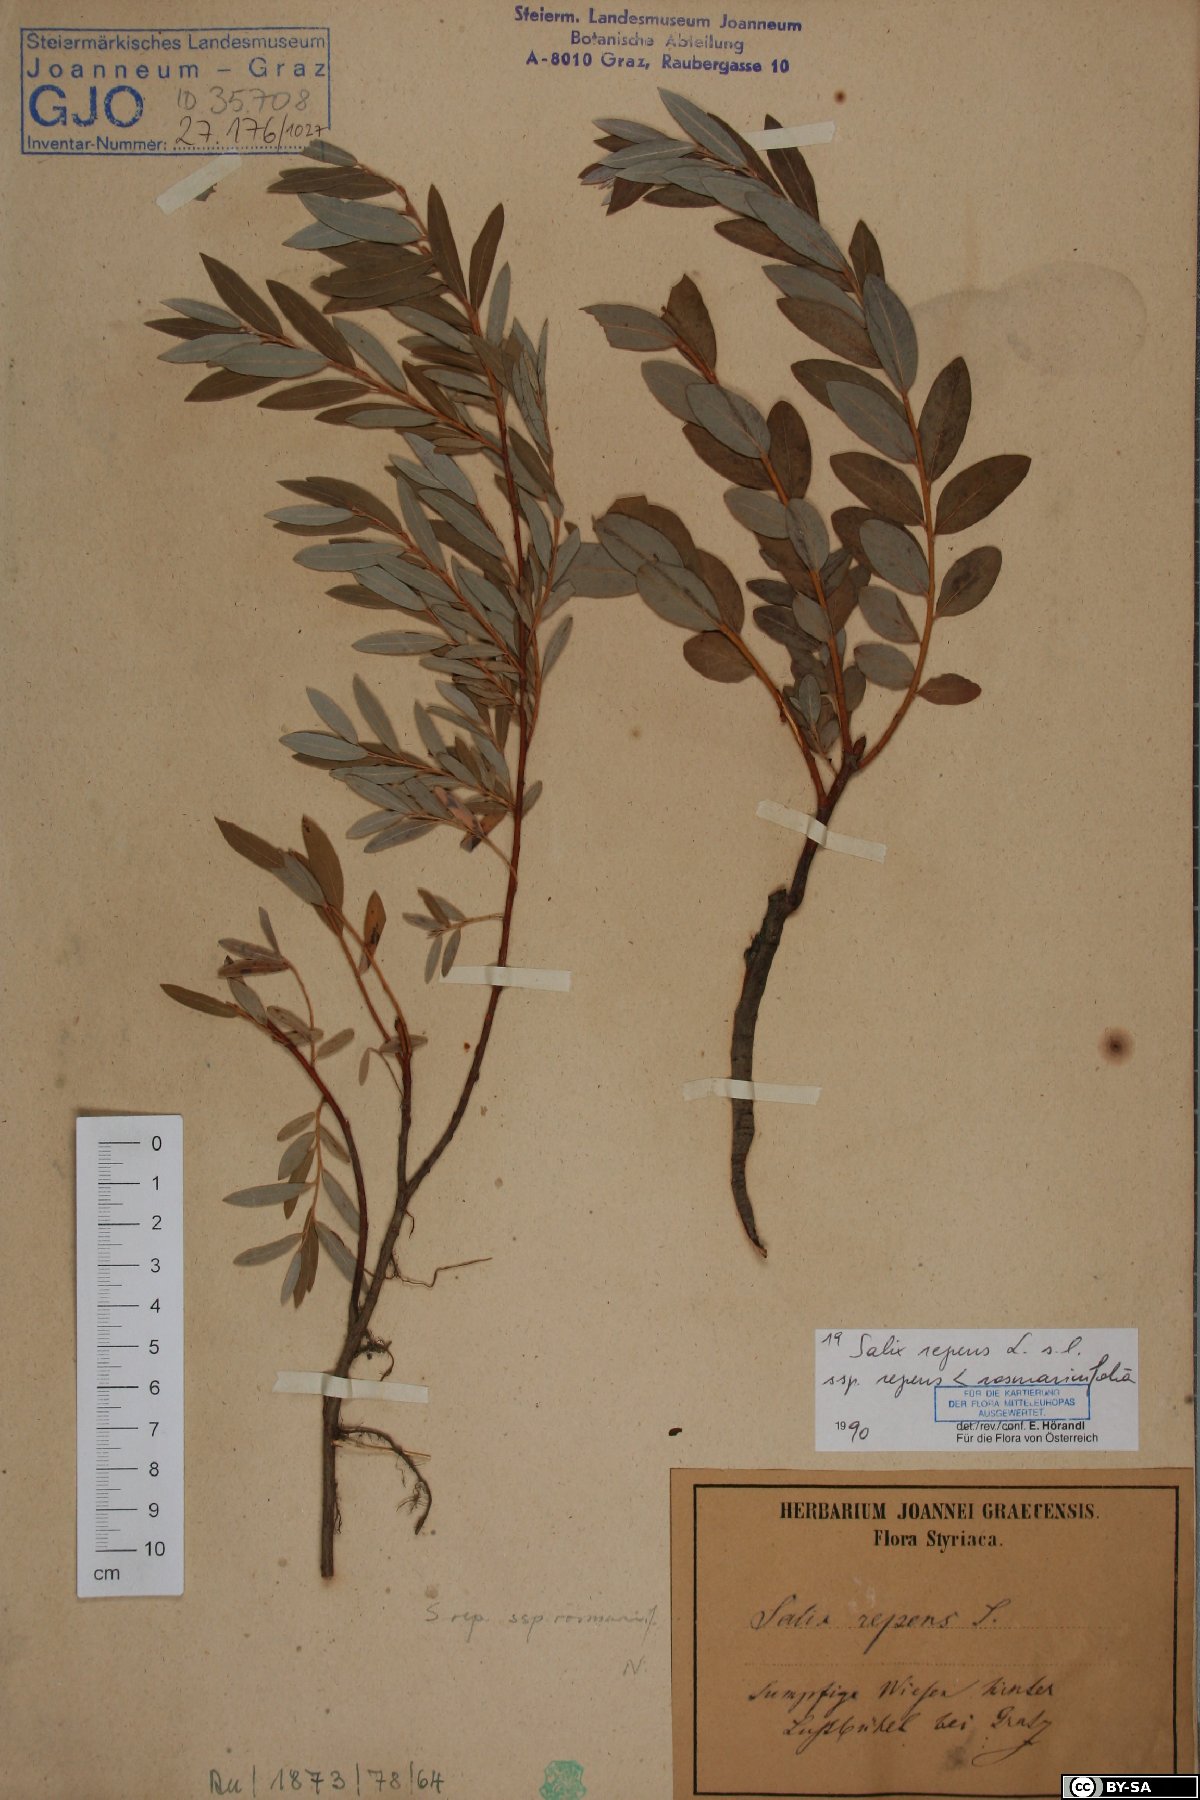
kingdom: Plantae
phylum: Tracheophyta
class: Magnoliopsida
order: Malpighiales
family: Salicaceae
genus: Salix
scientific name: Salix repens
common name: Creeping willow
